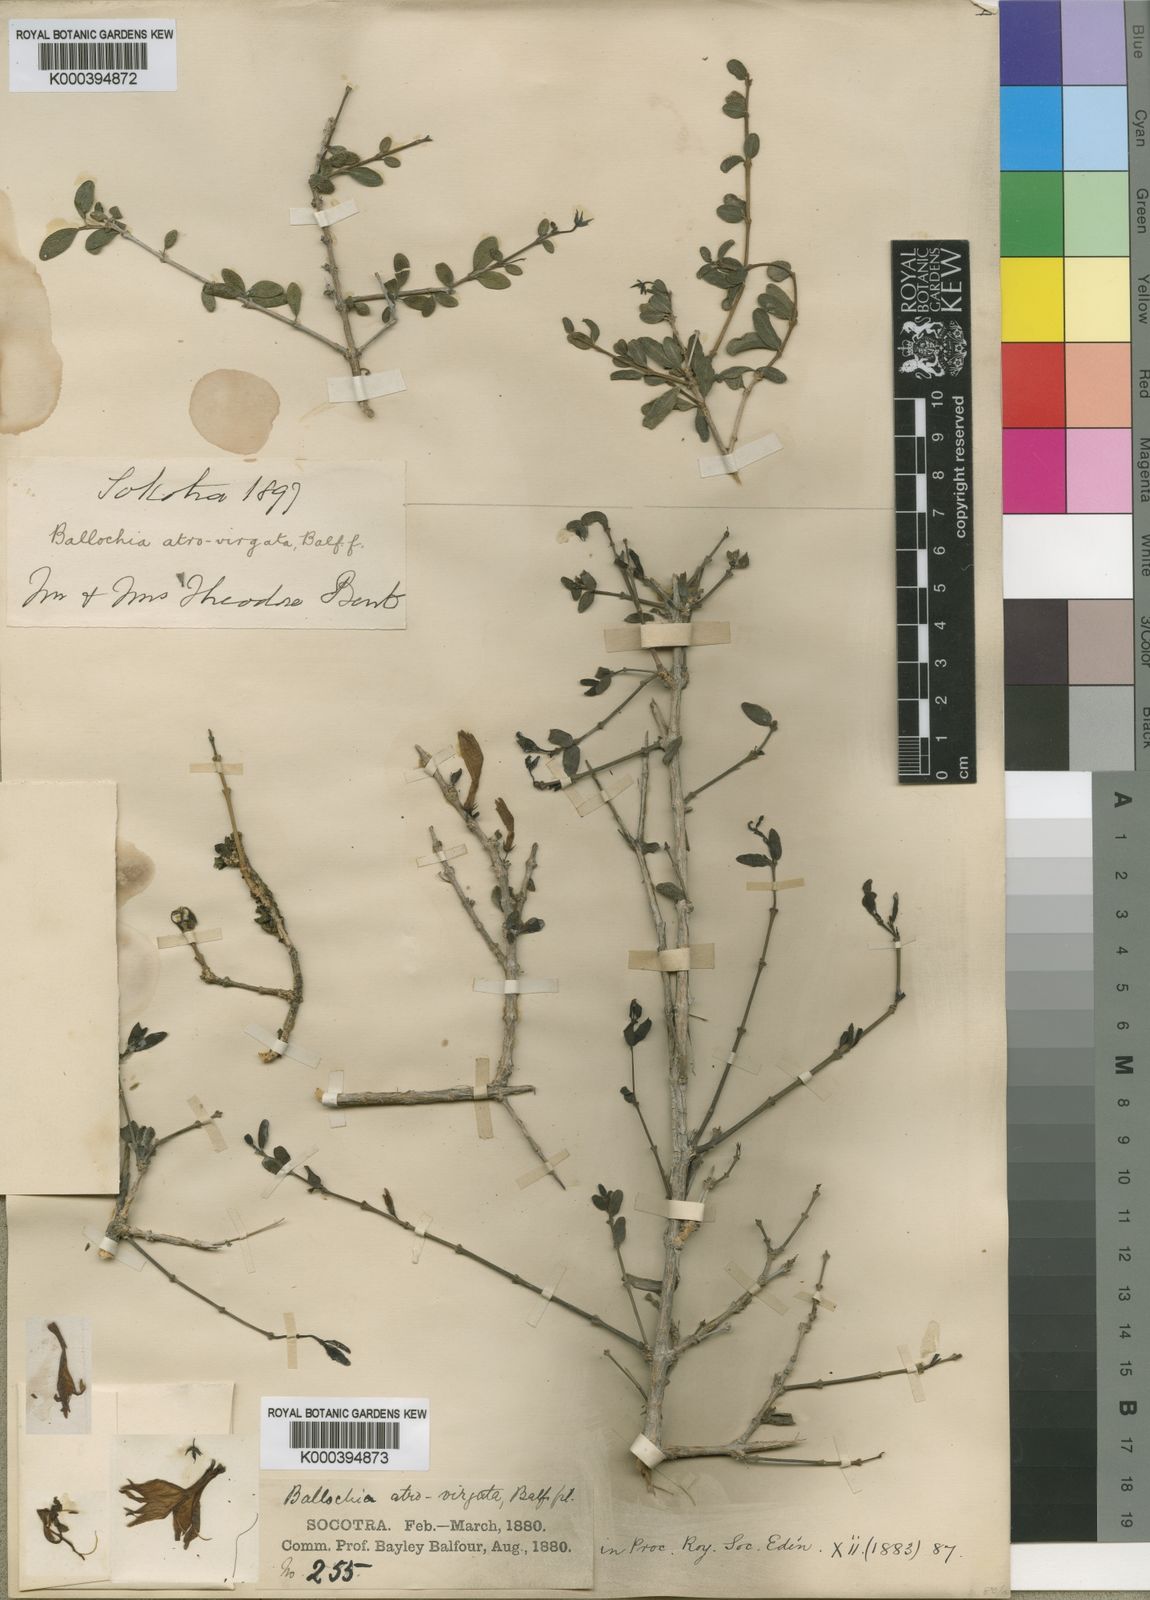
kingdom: Plantae
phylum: Tracheophyta
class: Magnoliopsida
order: Lamiales
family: Acanthaceae
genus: Ballochia
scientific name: Ballochia atrovirgata
